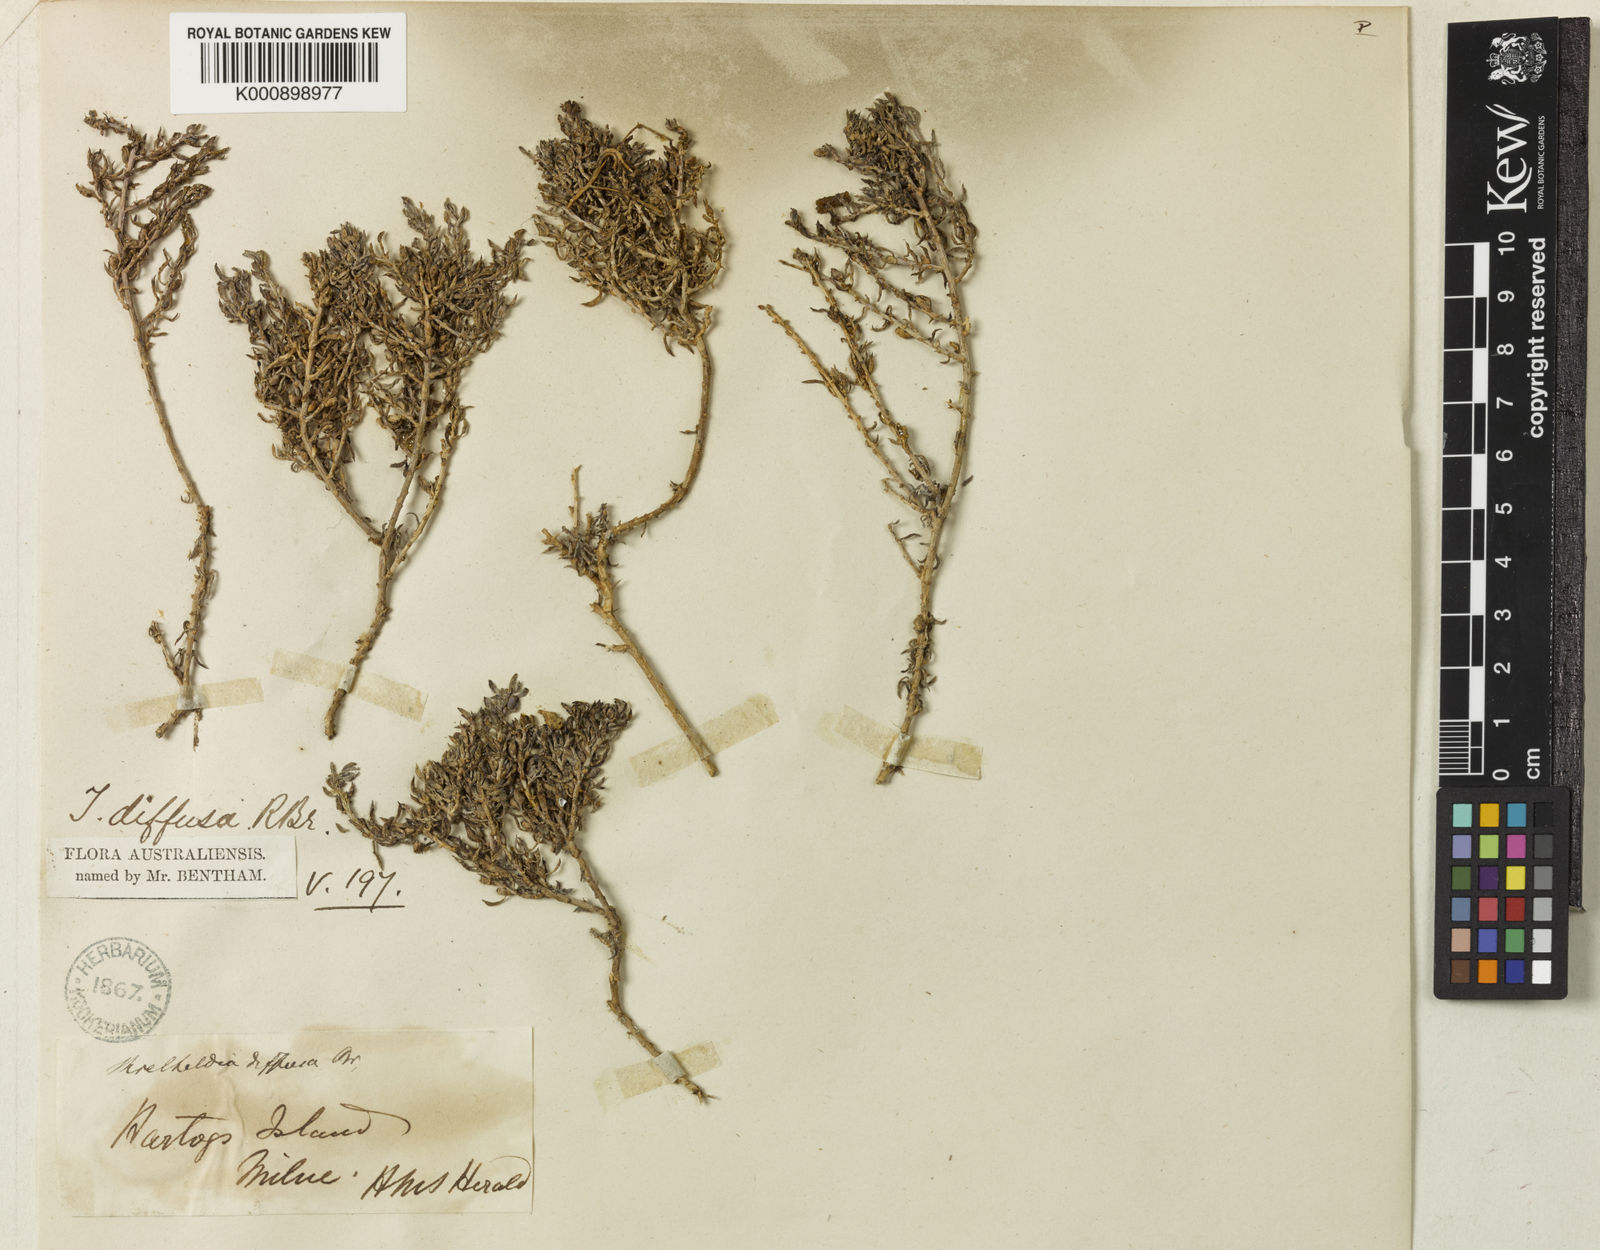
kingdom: Plantae
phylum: Tracheophyta
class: Magnoliopsida
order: Caryophyllales
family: Amaranthaceae
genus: Threlkeldia
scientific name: Threlkeldia diffusa
